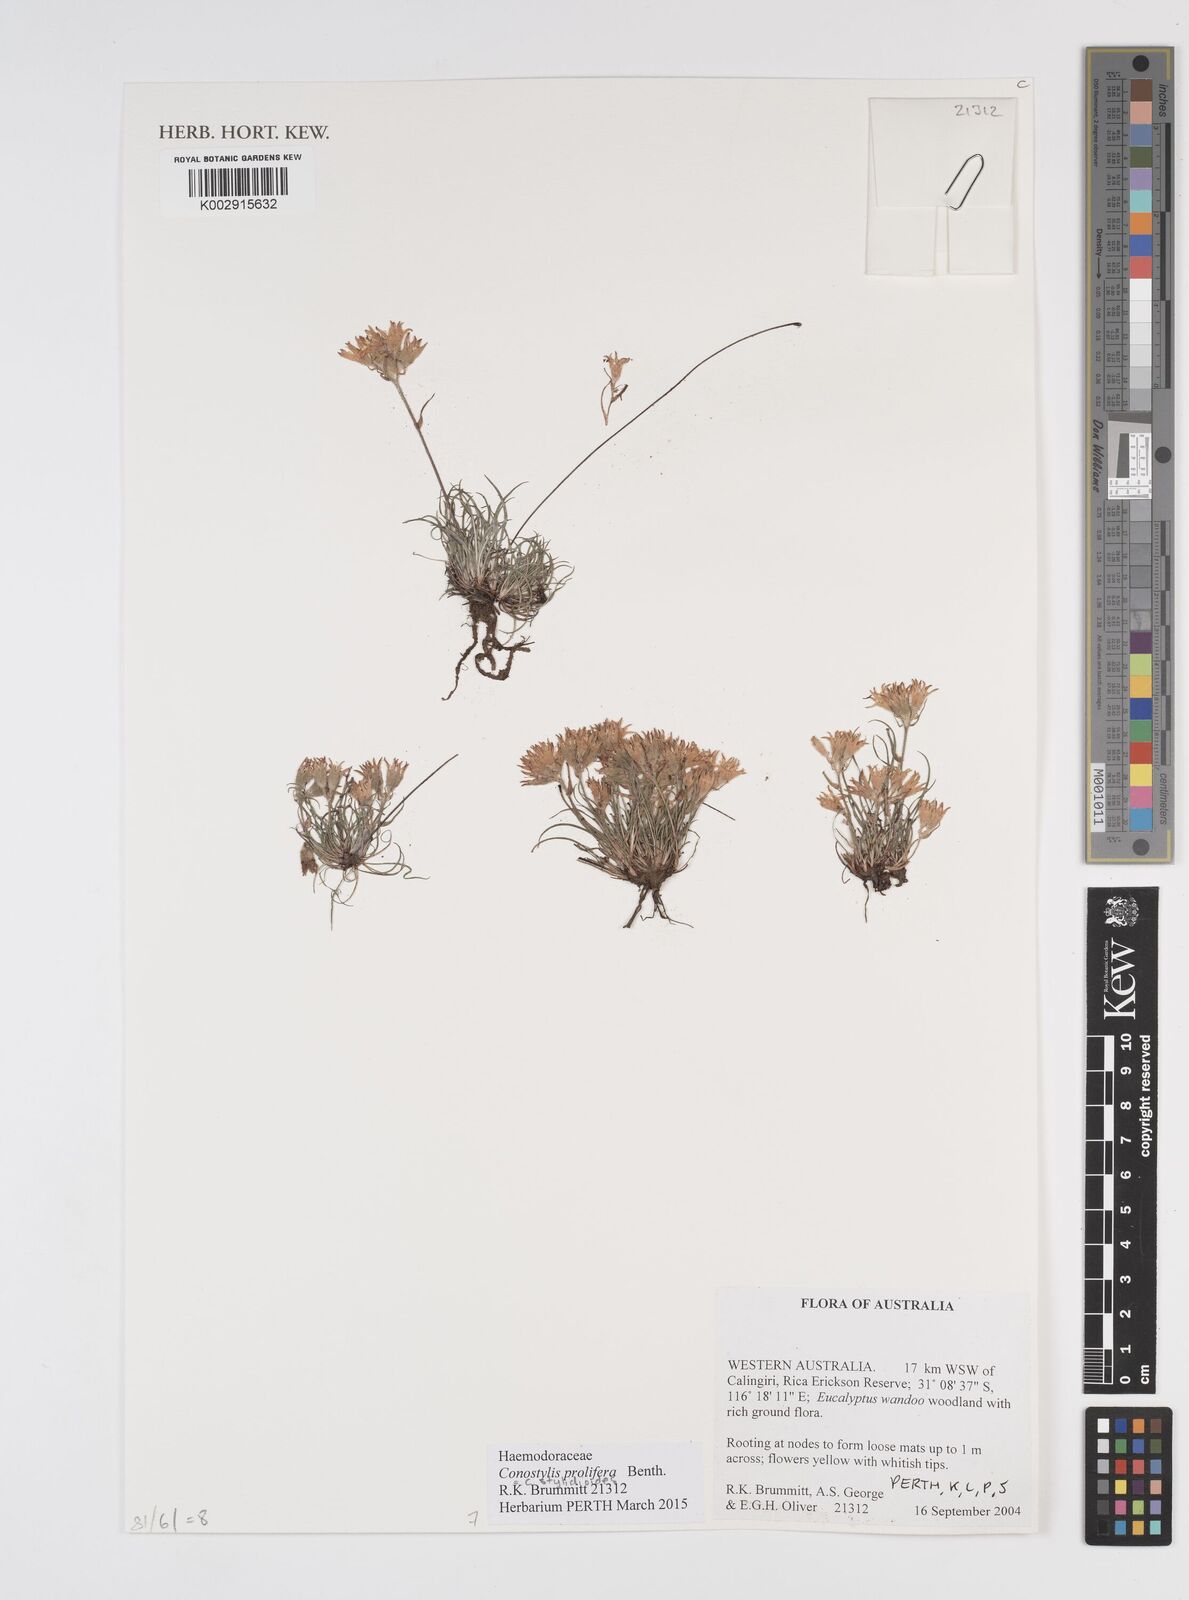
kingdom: Plantae
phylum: Tracheophyta
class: Liliopsida
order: Commelinales
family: Haemodoraceae
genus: Conostylis
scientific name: Conostylis stylidioides
